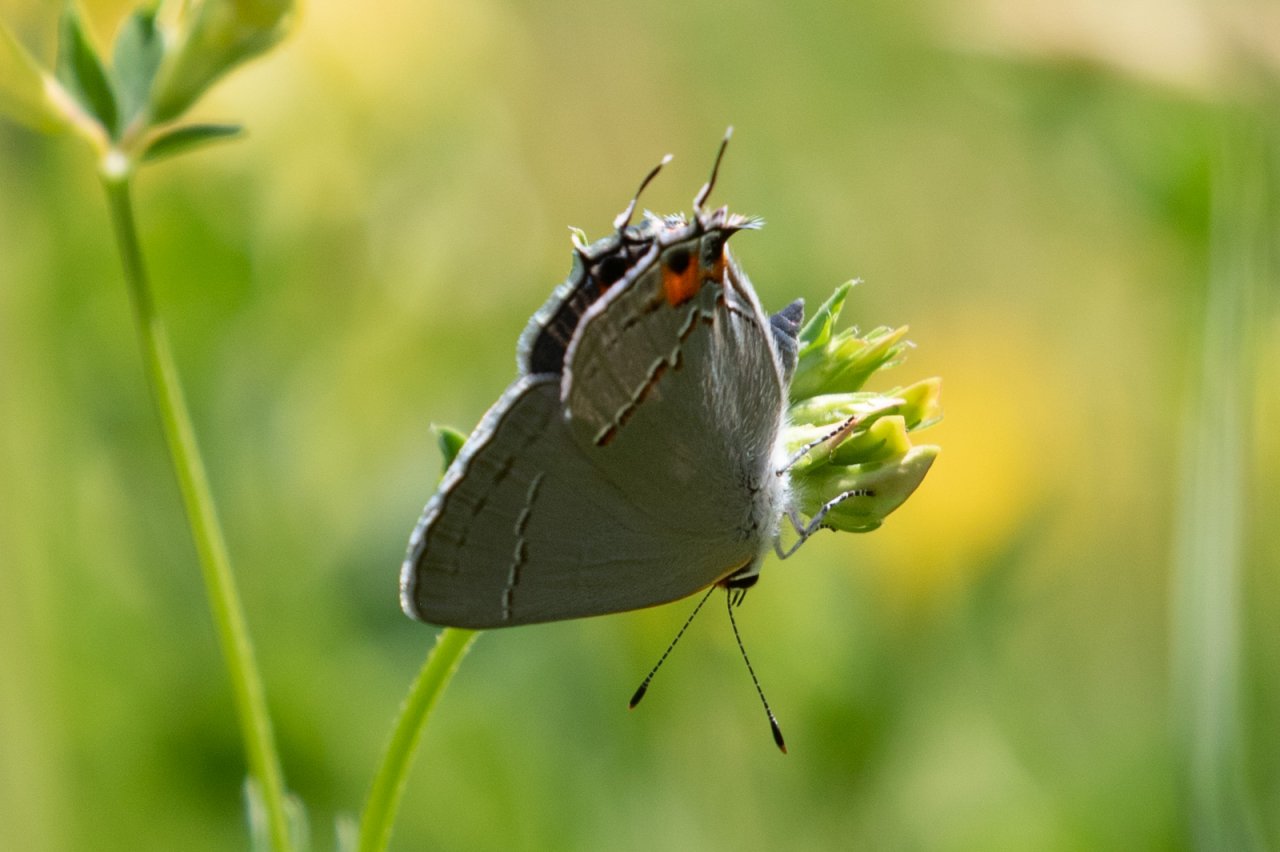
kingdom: Animalia
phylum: Arthropoda
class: Insecta
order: Lepidoptera
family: Lycaenidae
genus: Strymon
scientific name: Strymon melinus
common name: Gray Hairstreak
